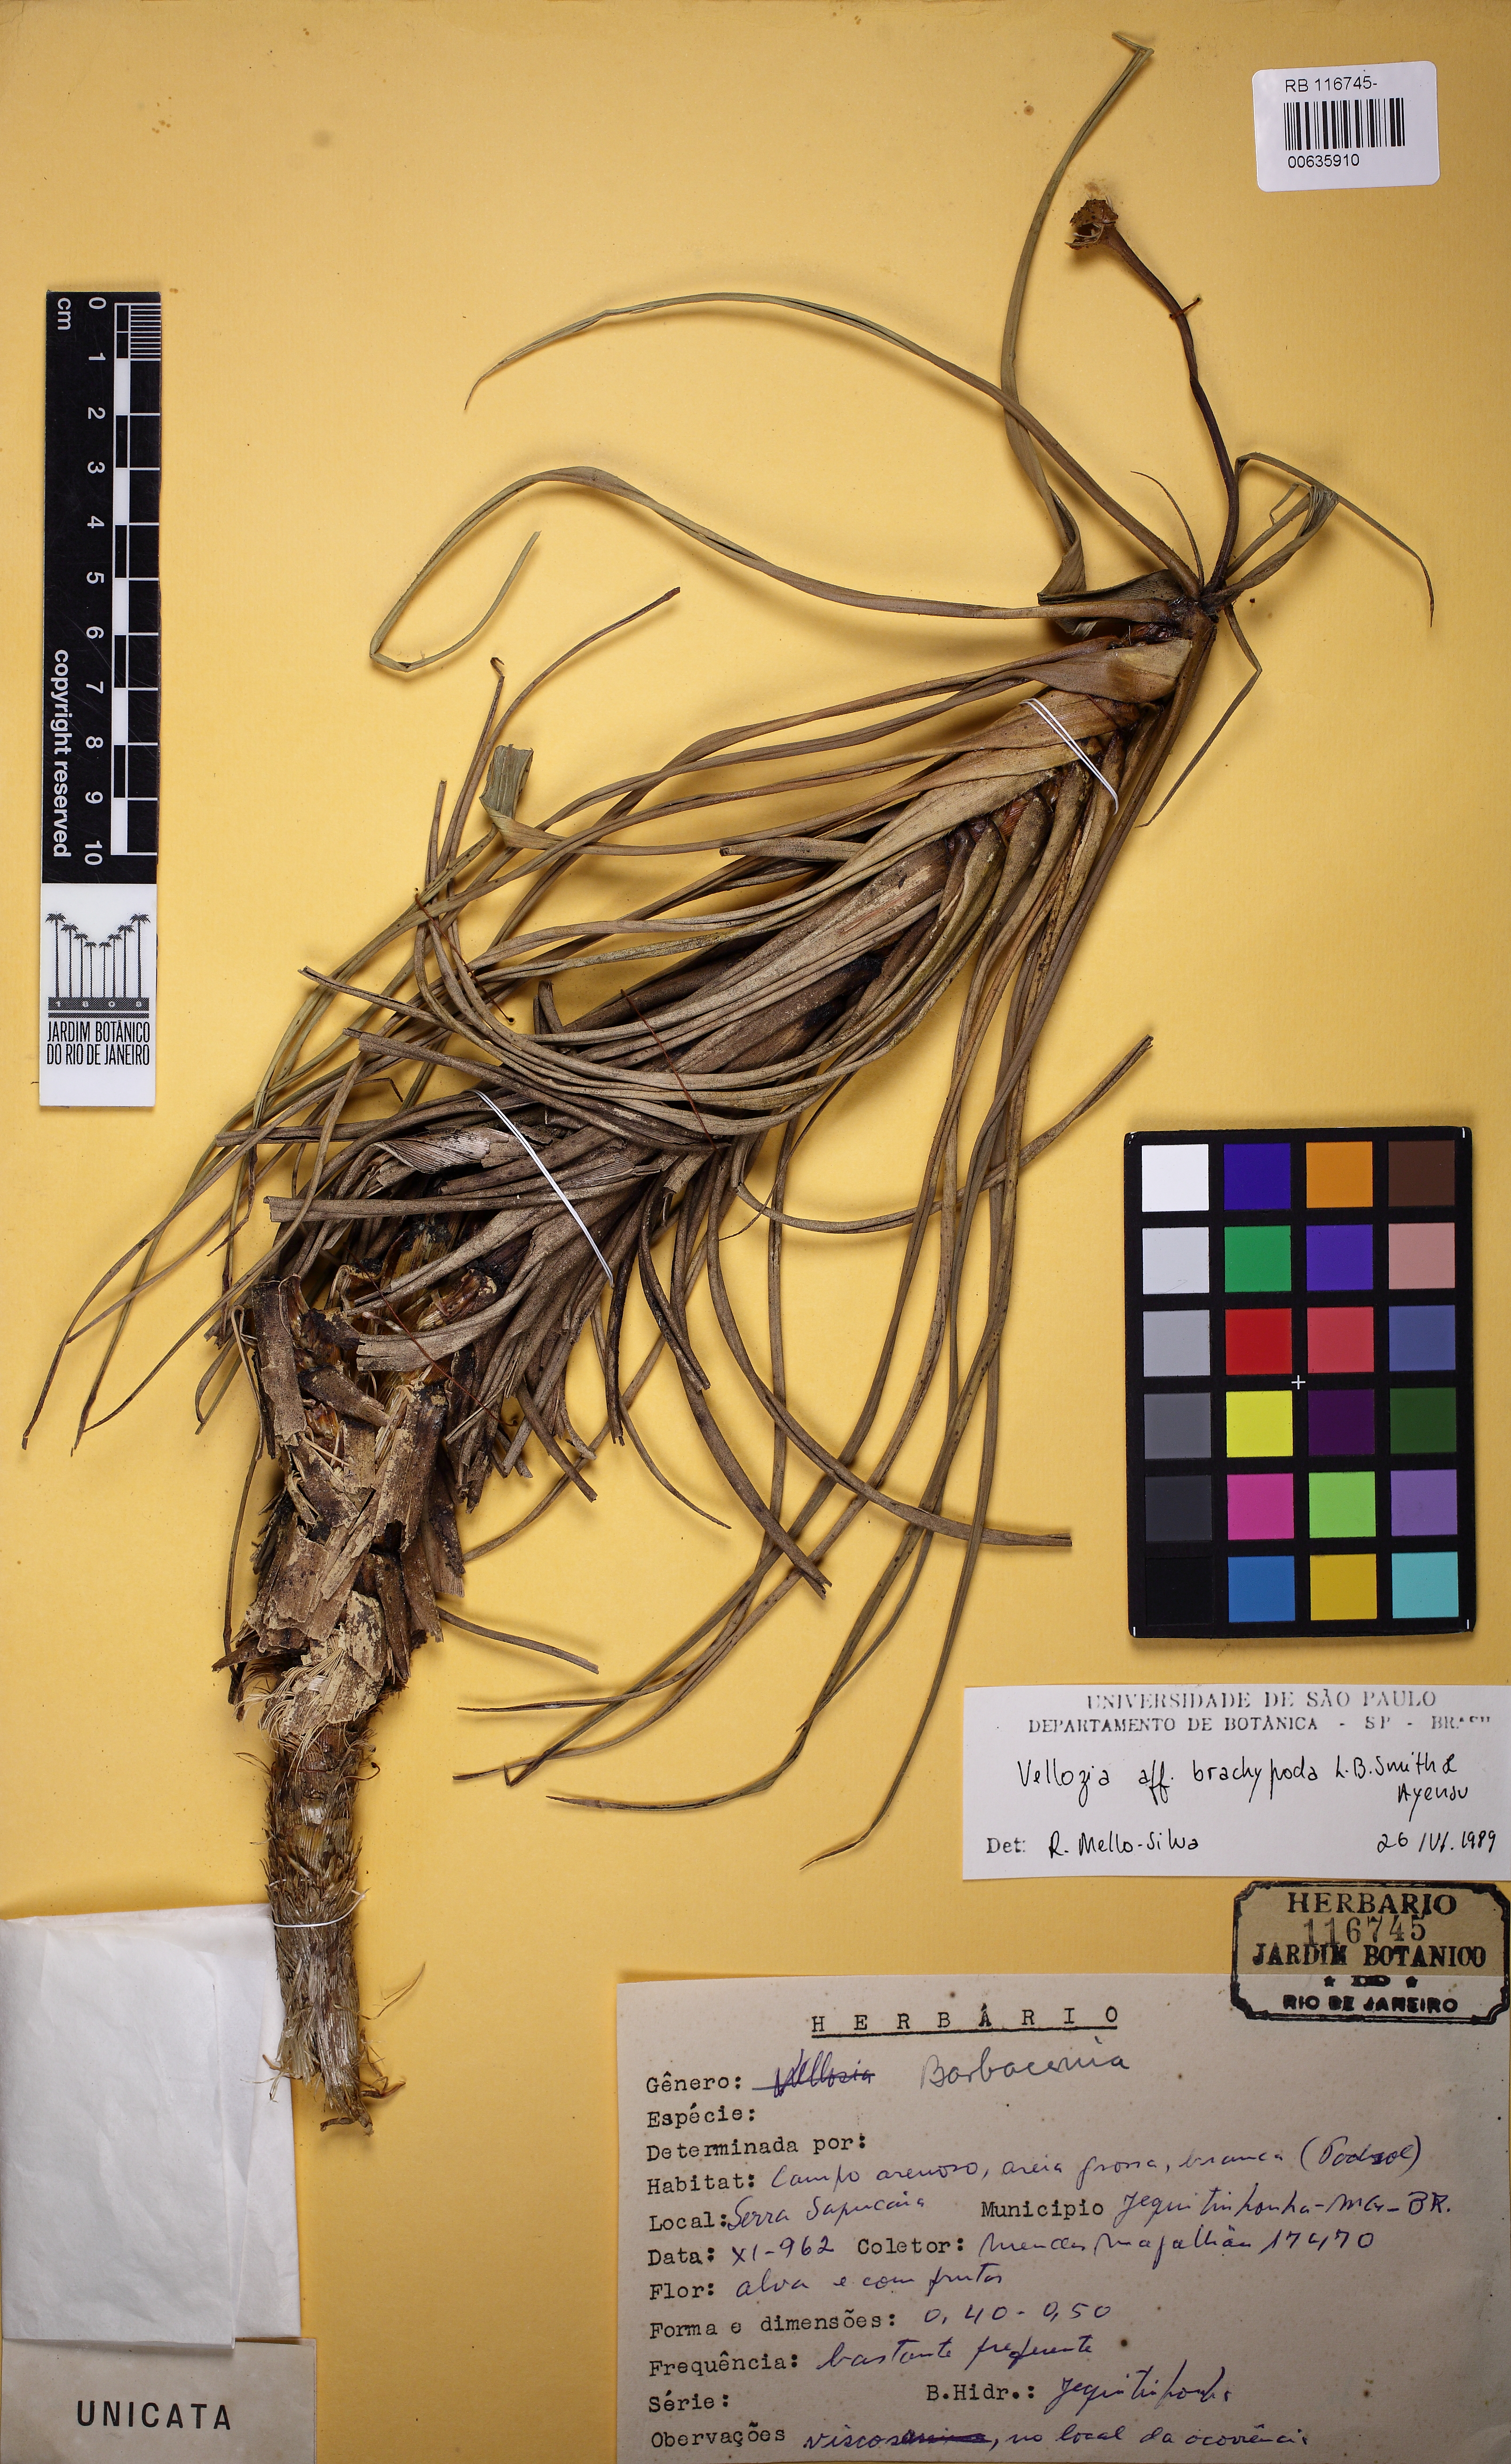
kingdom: Plantae
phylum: Tracheophyta
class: Liliopsida
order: Pandanales
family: Velloziaceae
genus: Vellozia
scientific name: Vellozia brachypoda
